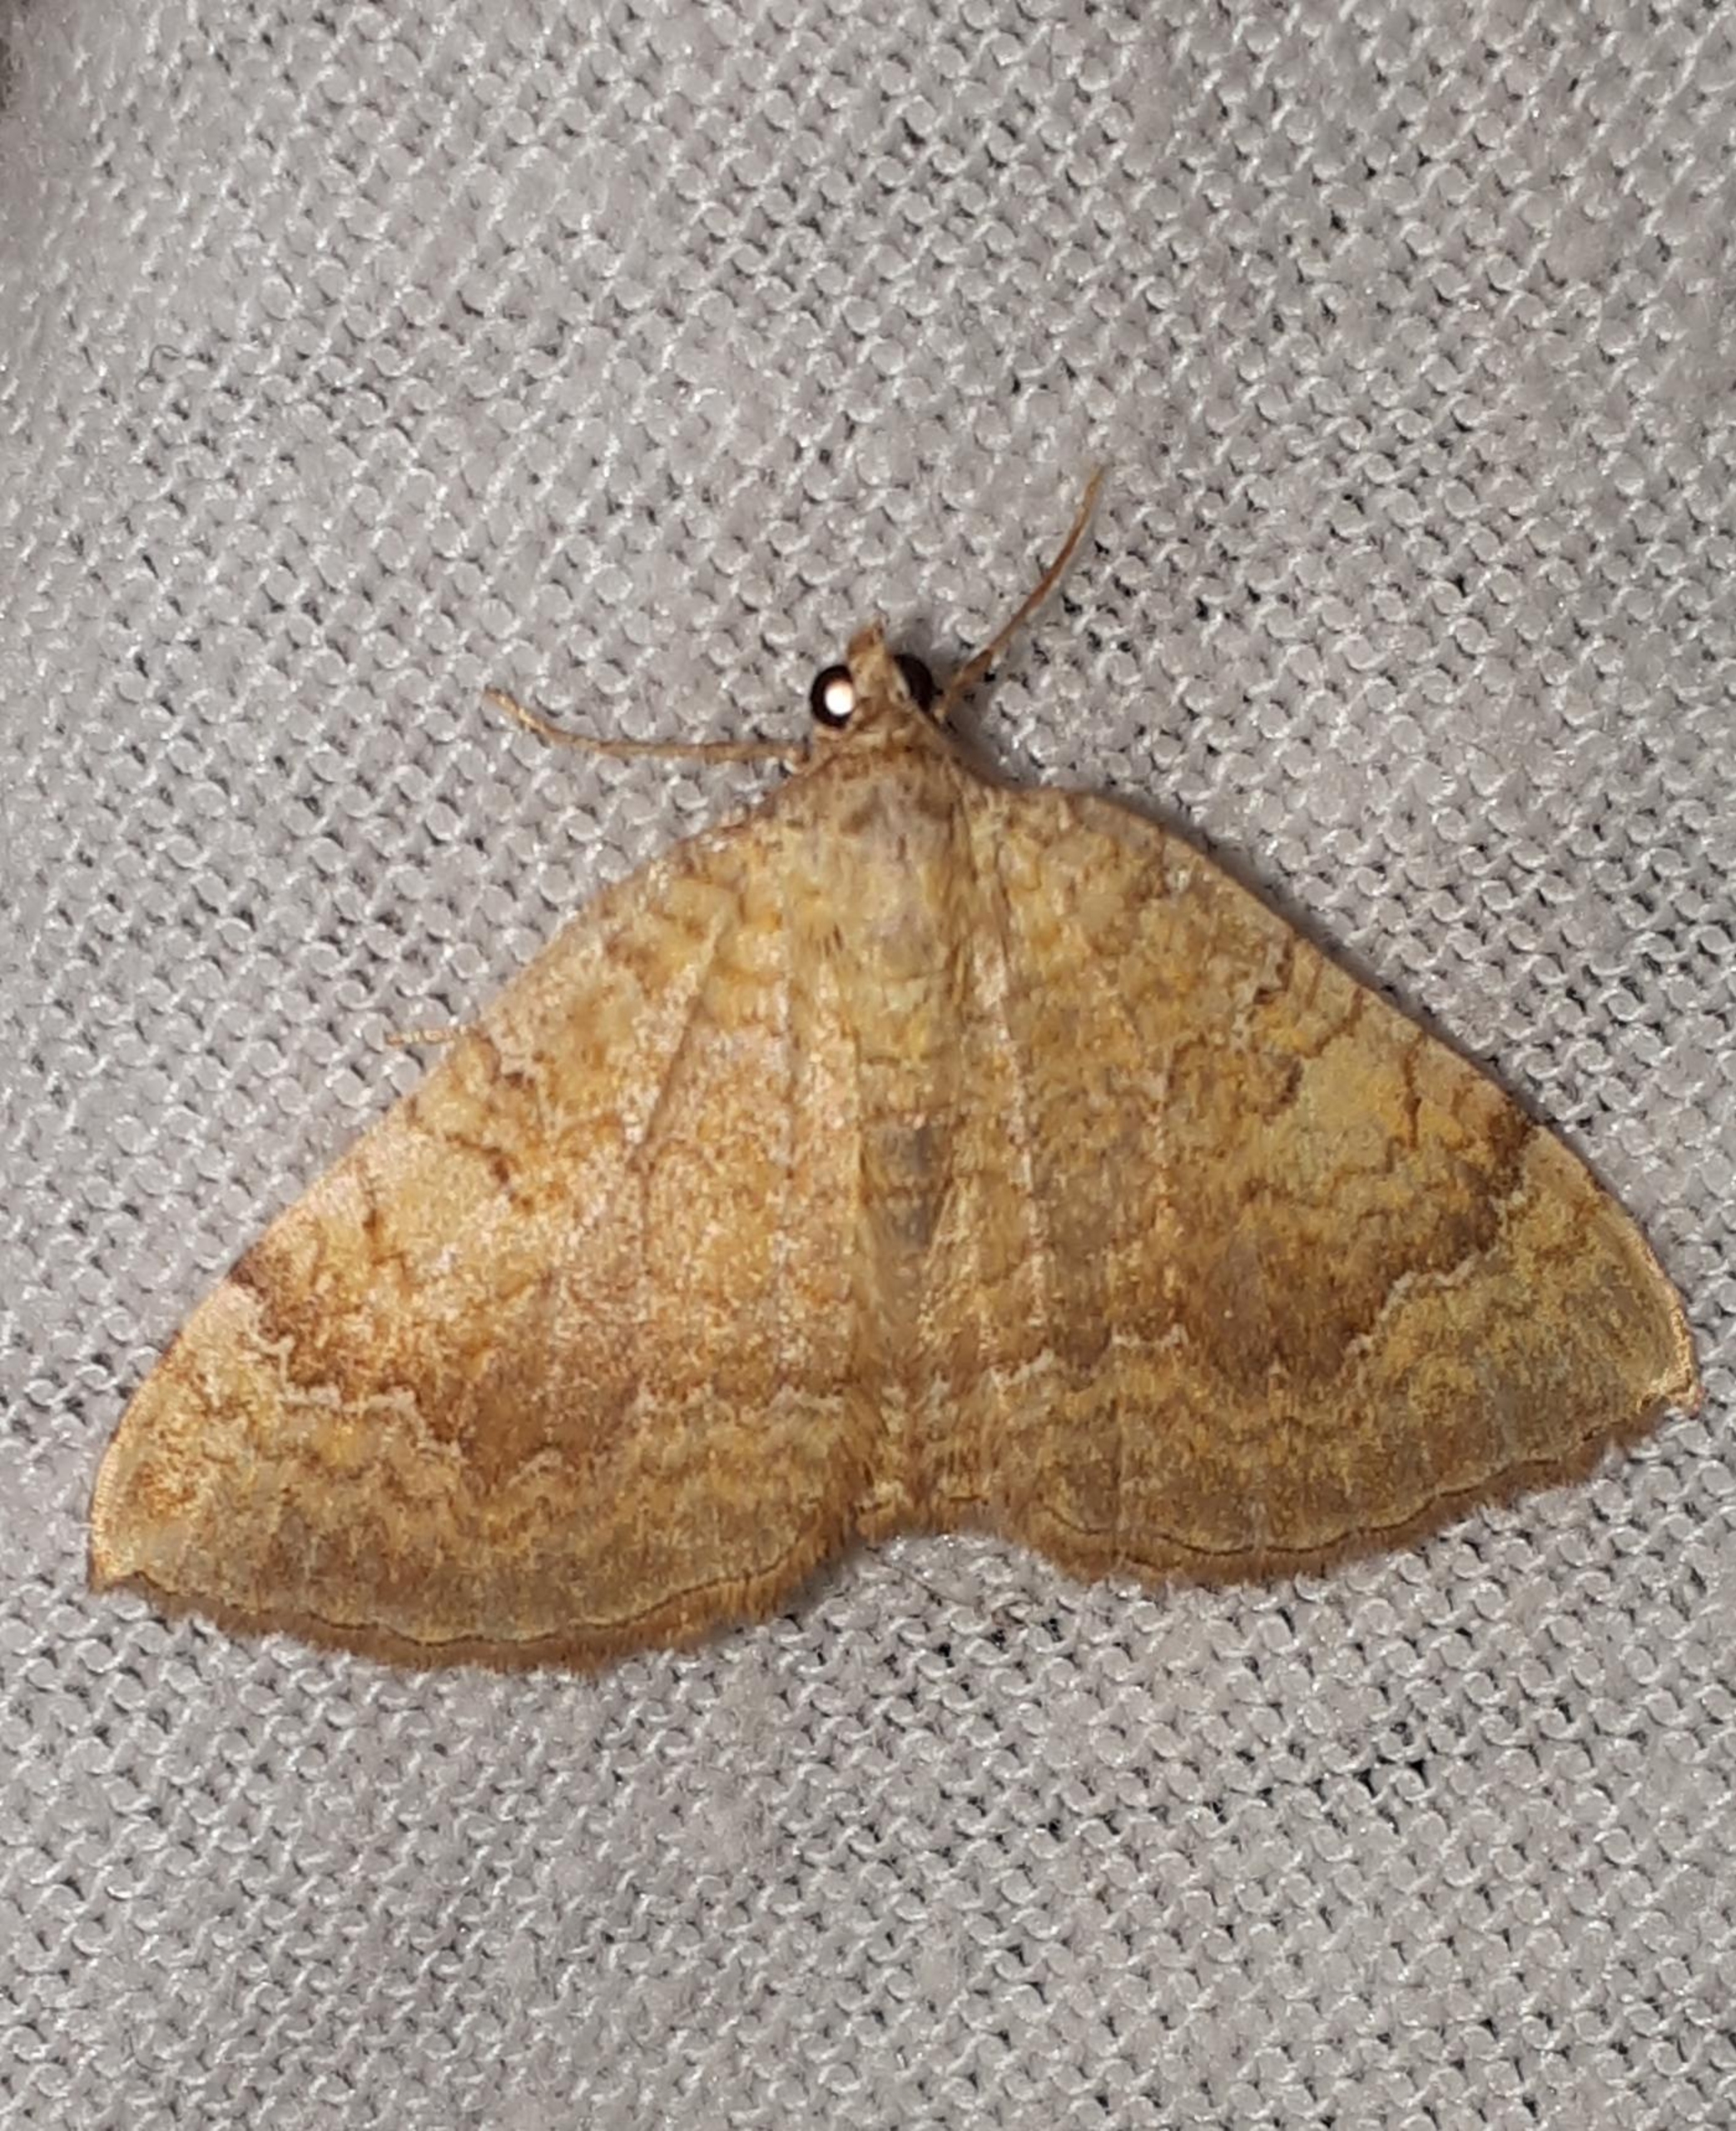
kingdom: Animalia
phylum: Arthropoda
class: Insecta
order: Lepidoptera
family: Geometridae
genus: Camptogramma
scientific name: Camptogramma bilineata
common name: Okkergul bladmåler
